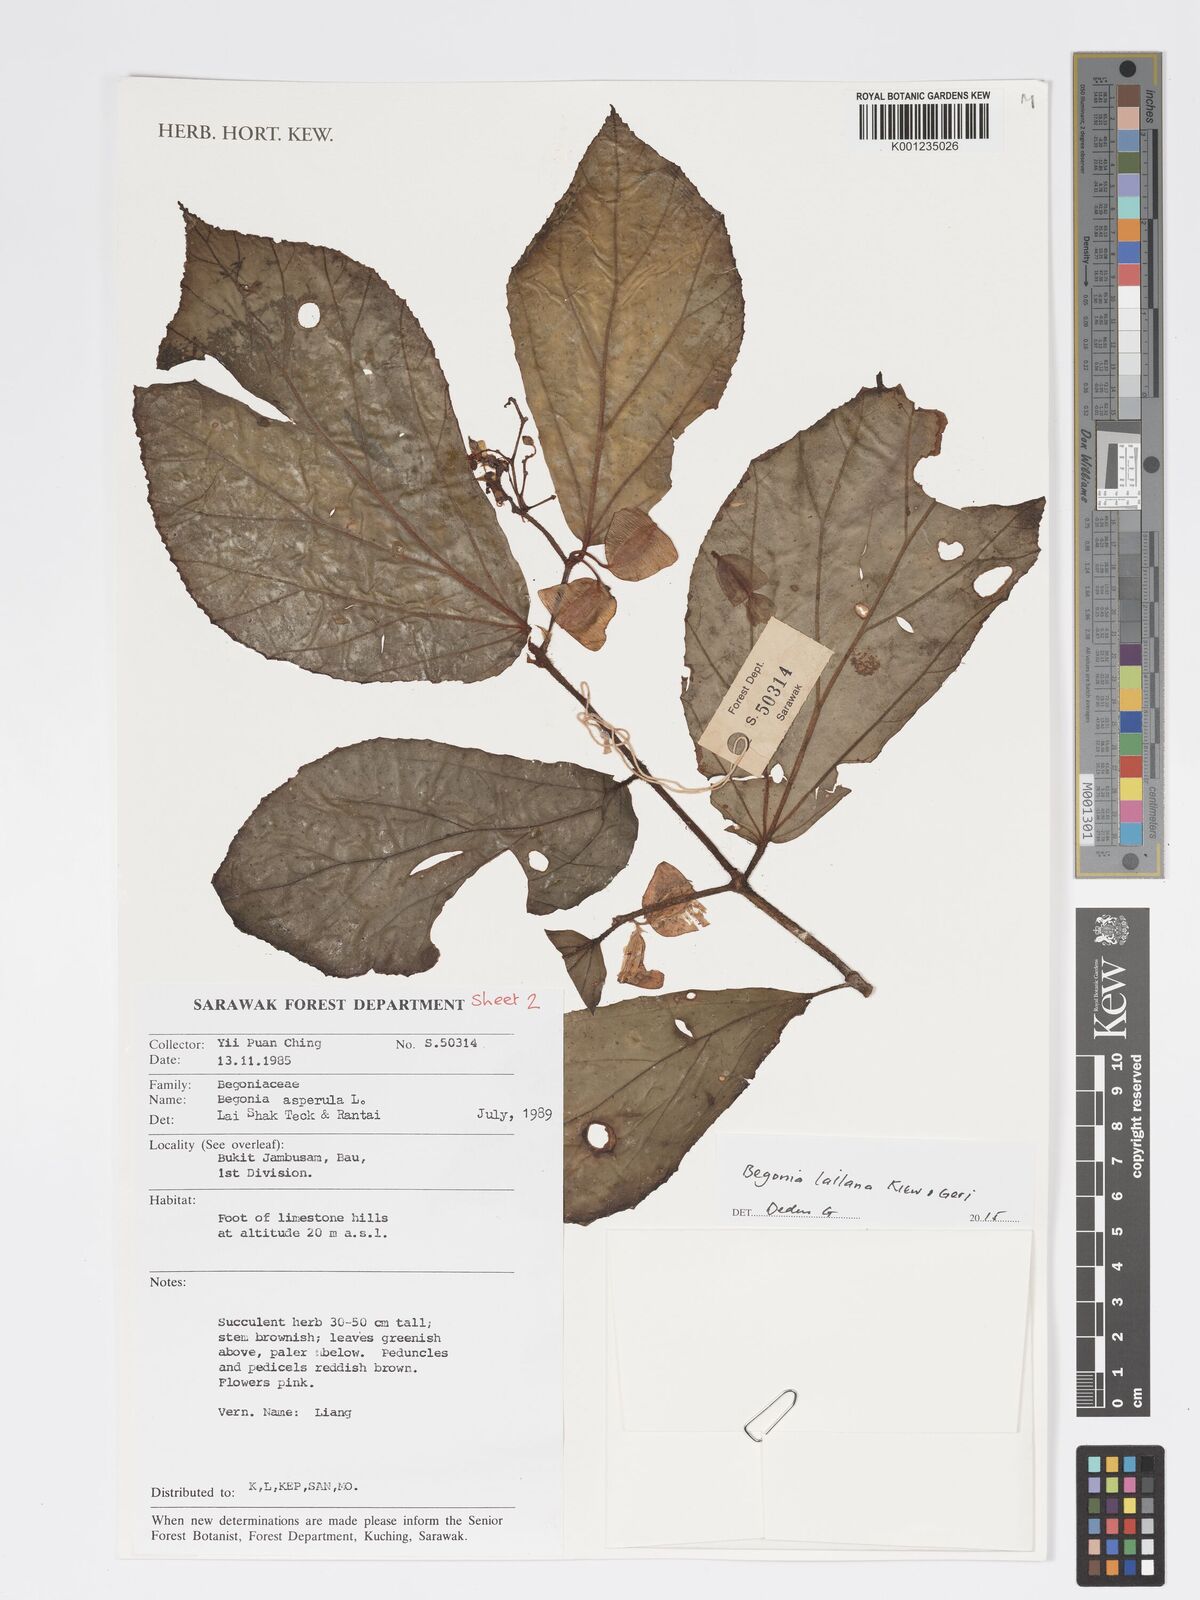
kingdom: Plantae
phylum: Tracheophyta
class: Magnoliopsida
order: Cucurbitales
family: Begoniaceae
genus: Begonia
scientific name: Begonia lailana
